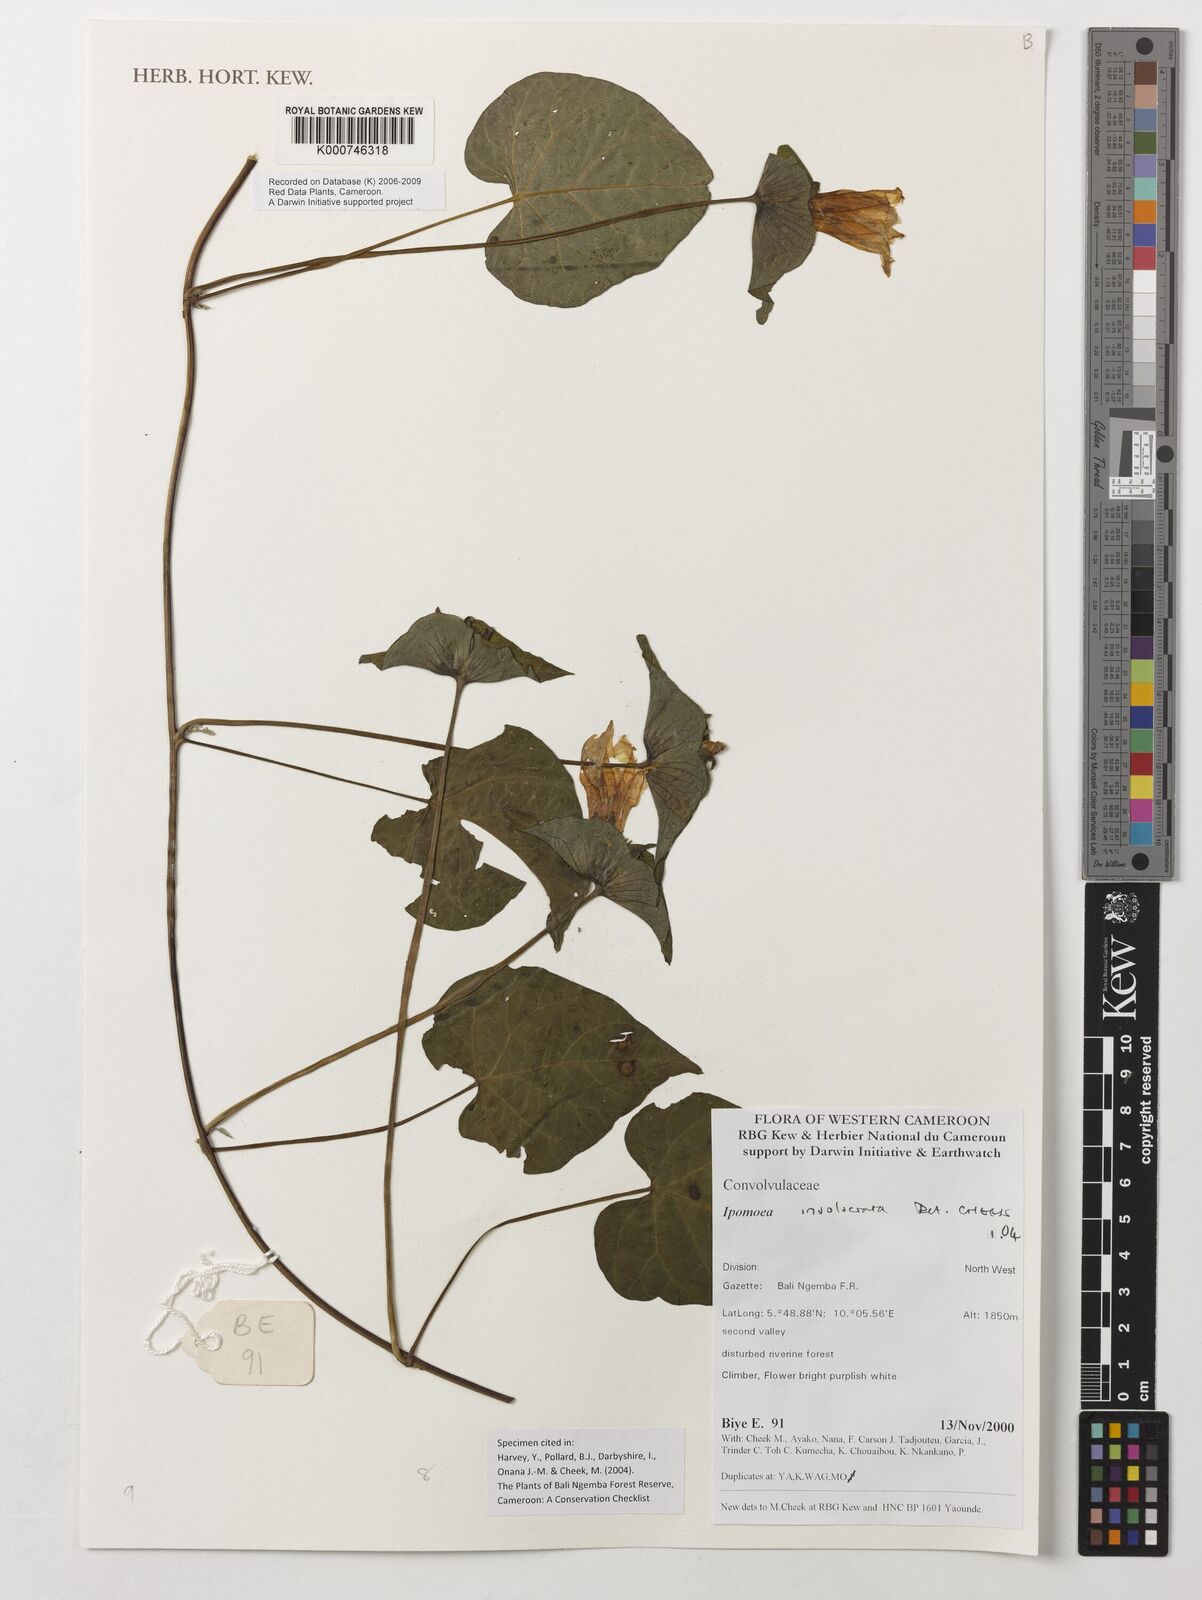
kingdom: Plantae
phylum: Tracheophyta
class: Magnoliopsida
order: Solanales
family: Convolvulaceae
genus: Ipomoea
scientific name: Ipomoea involucrata
